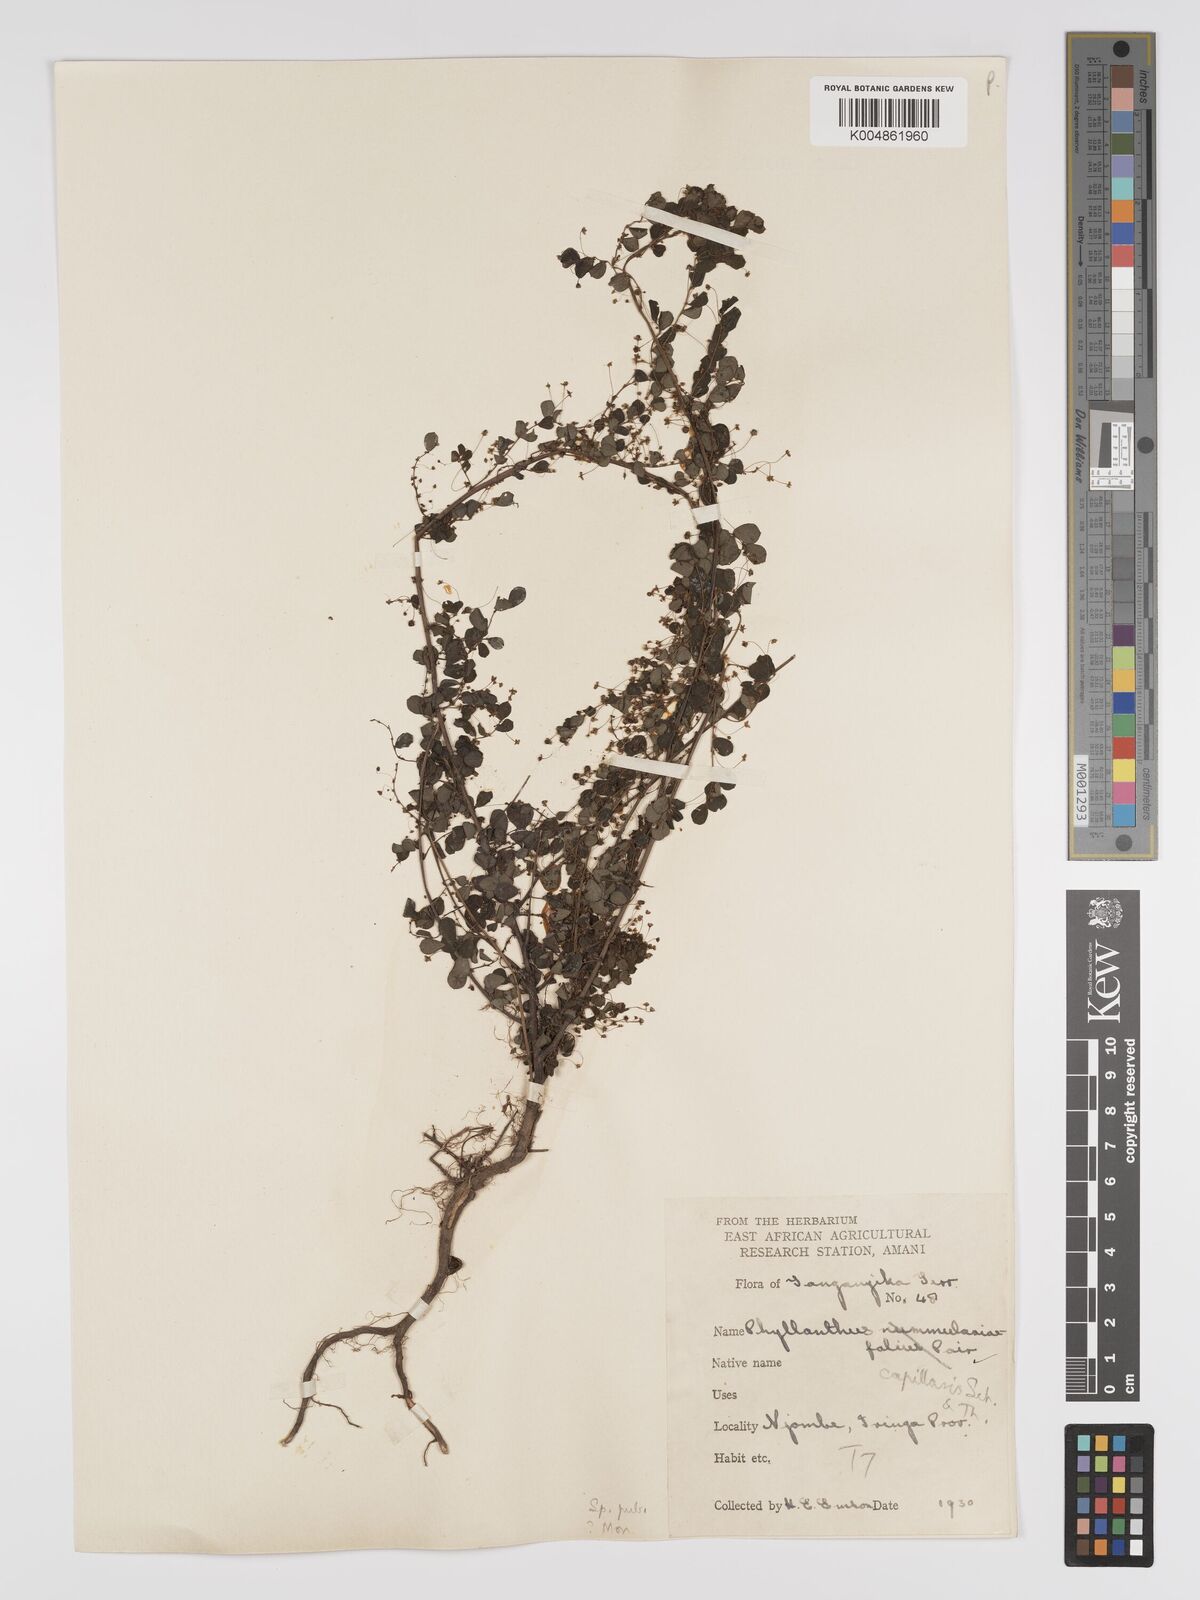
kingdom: Plantae
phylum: Tracheophyta
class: Magnoliopsida
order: Malpighiales
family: Phyllanthaceae
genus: Phyllanthus
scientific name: Phyllanthus nummulariifolius
